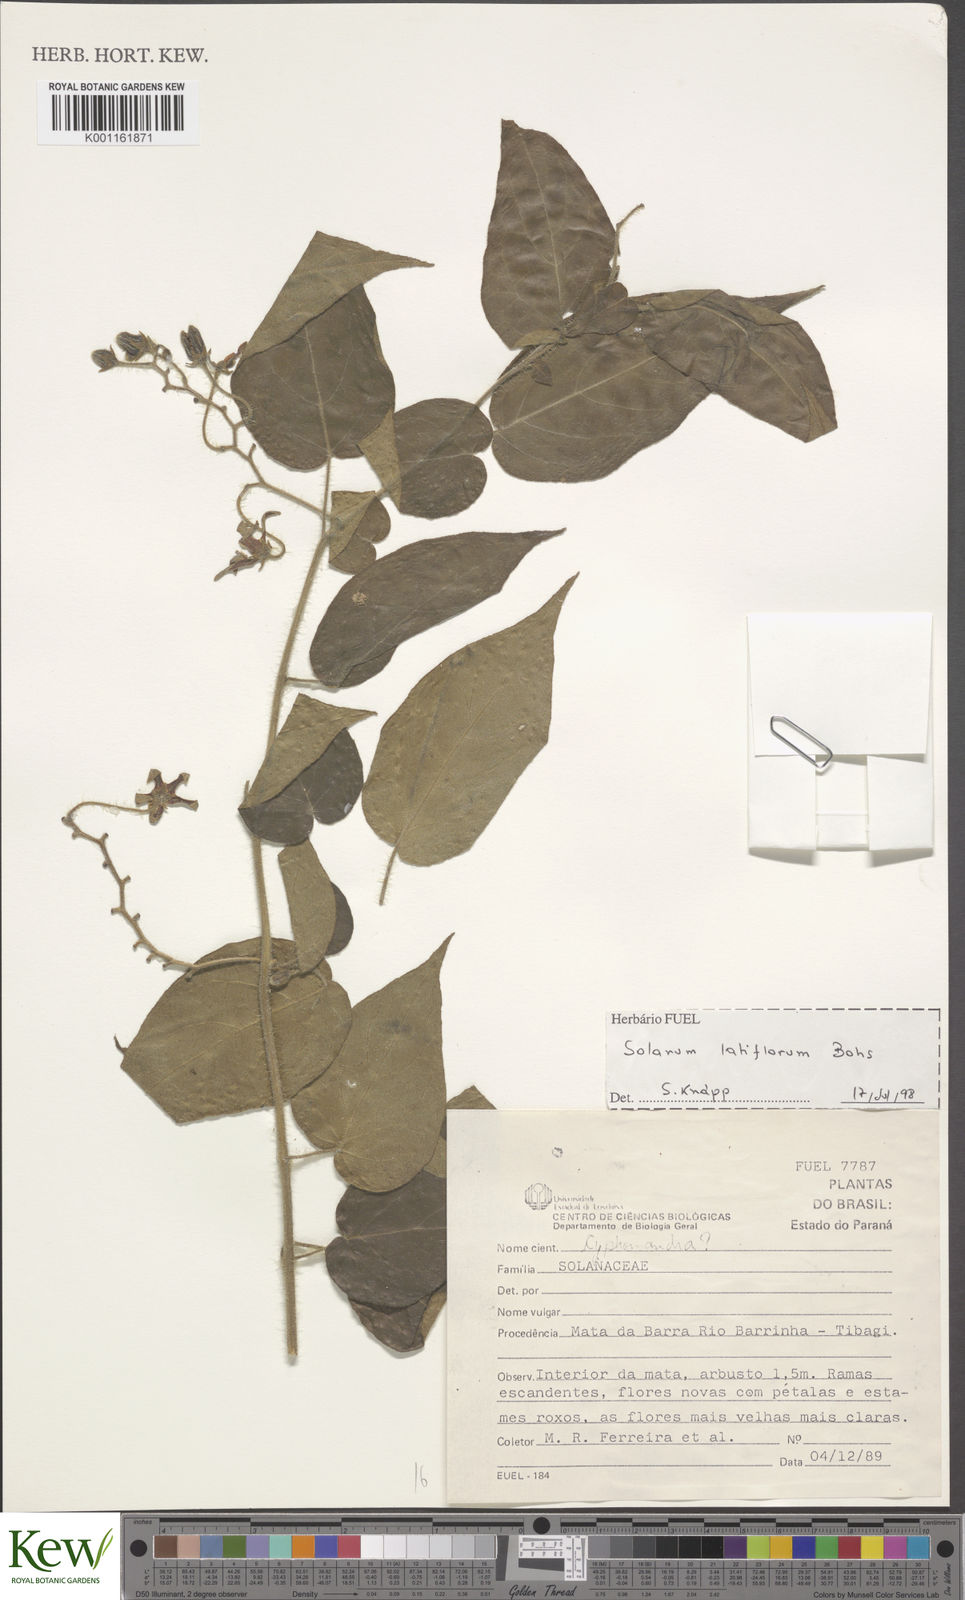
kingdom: Plantae
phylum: Tracheophyta
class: Magnoliopsida
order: Solanales
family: Solanaceae
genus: Solanum
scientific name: Solanum paniculatum
